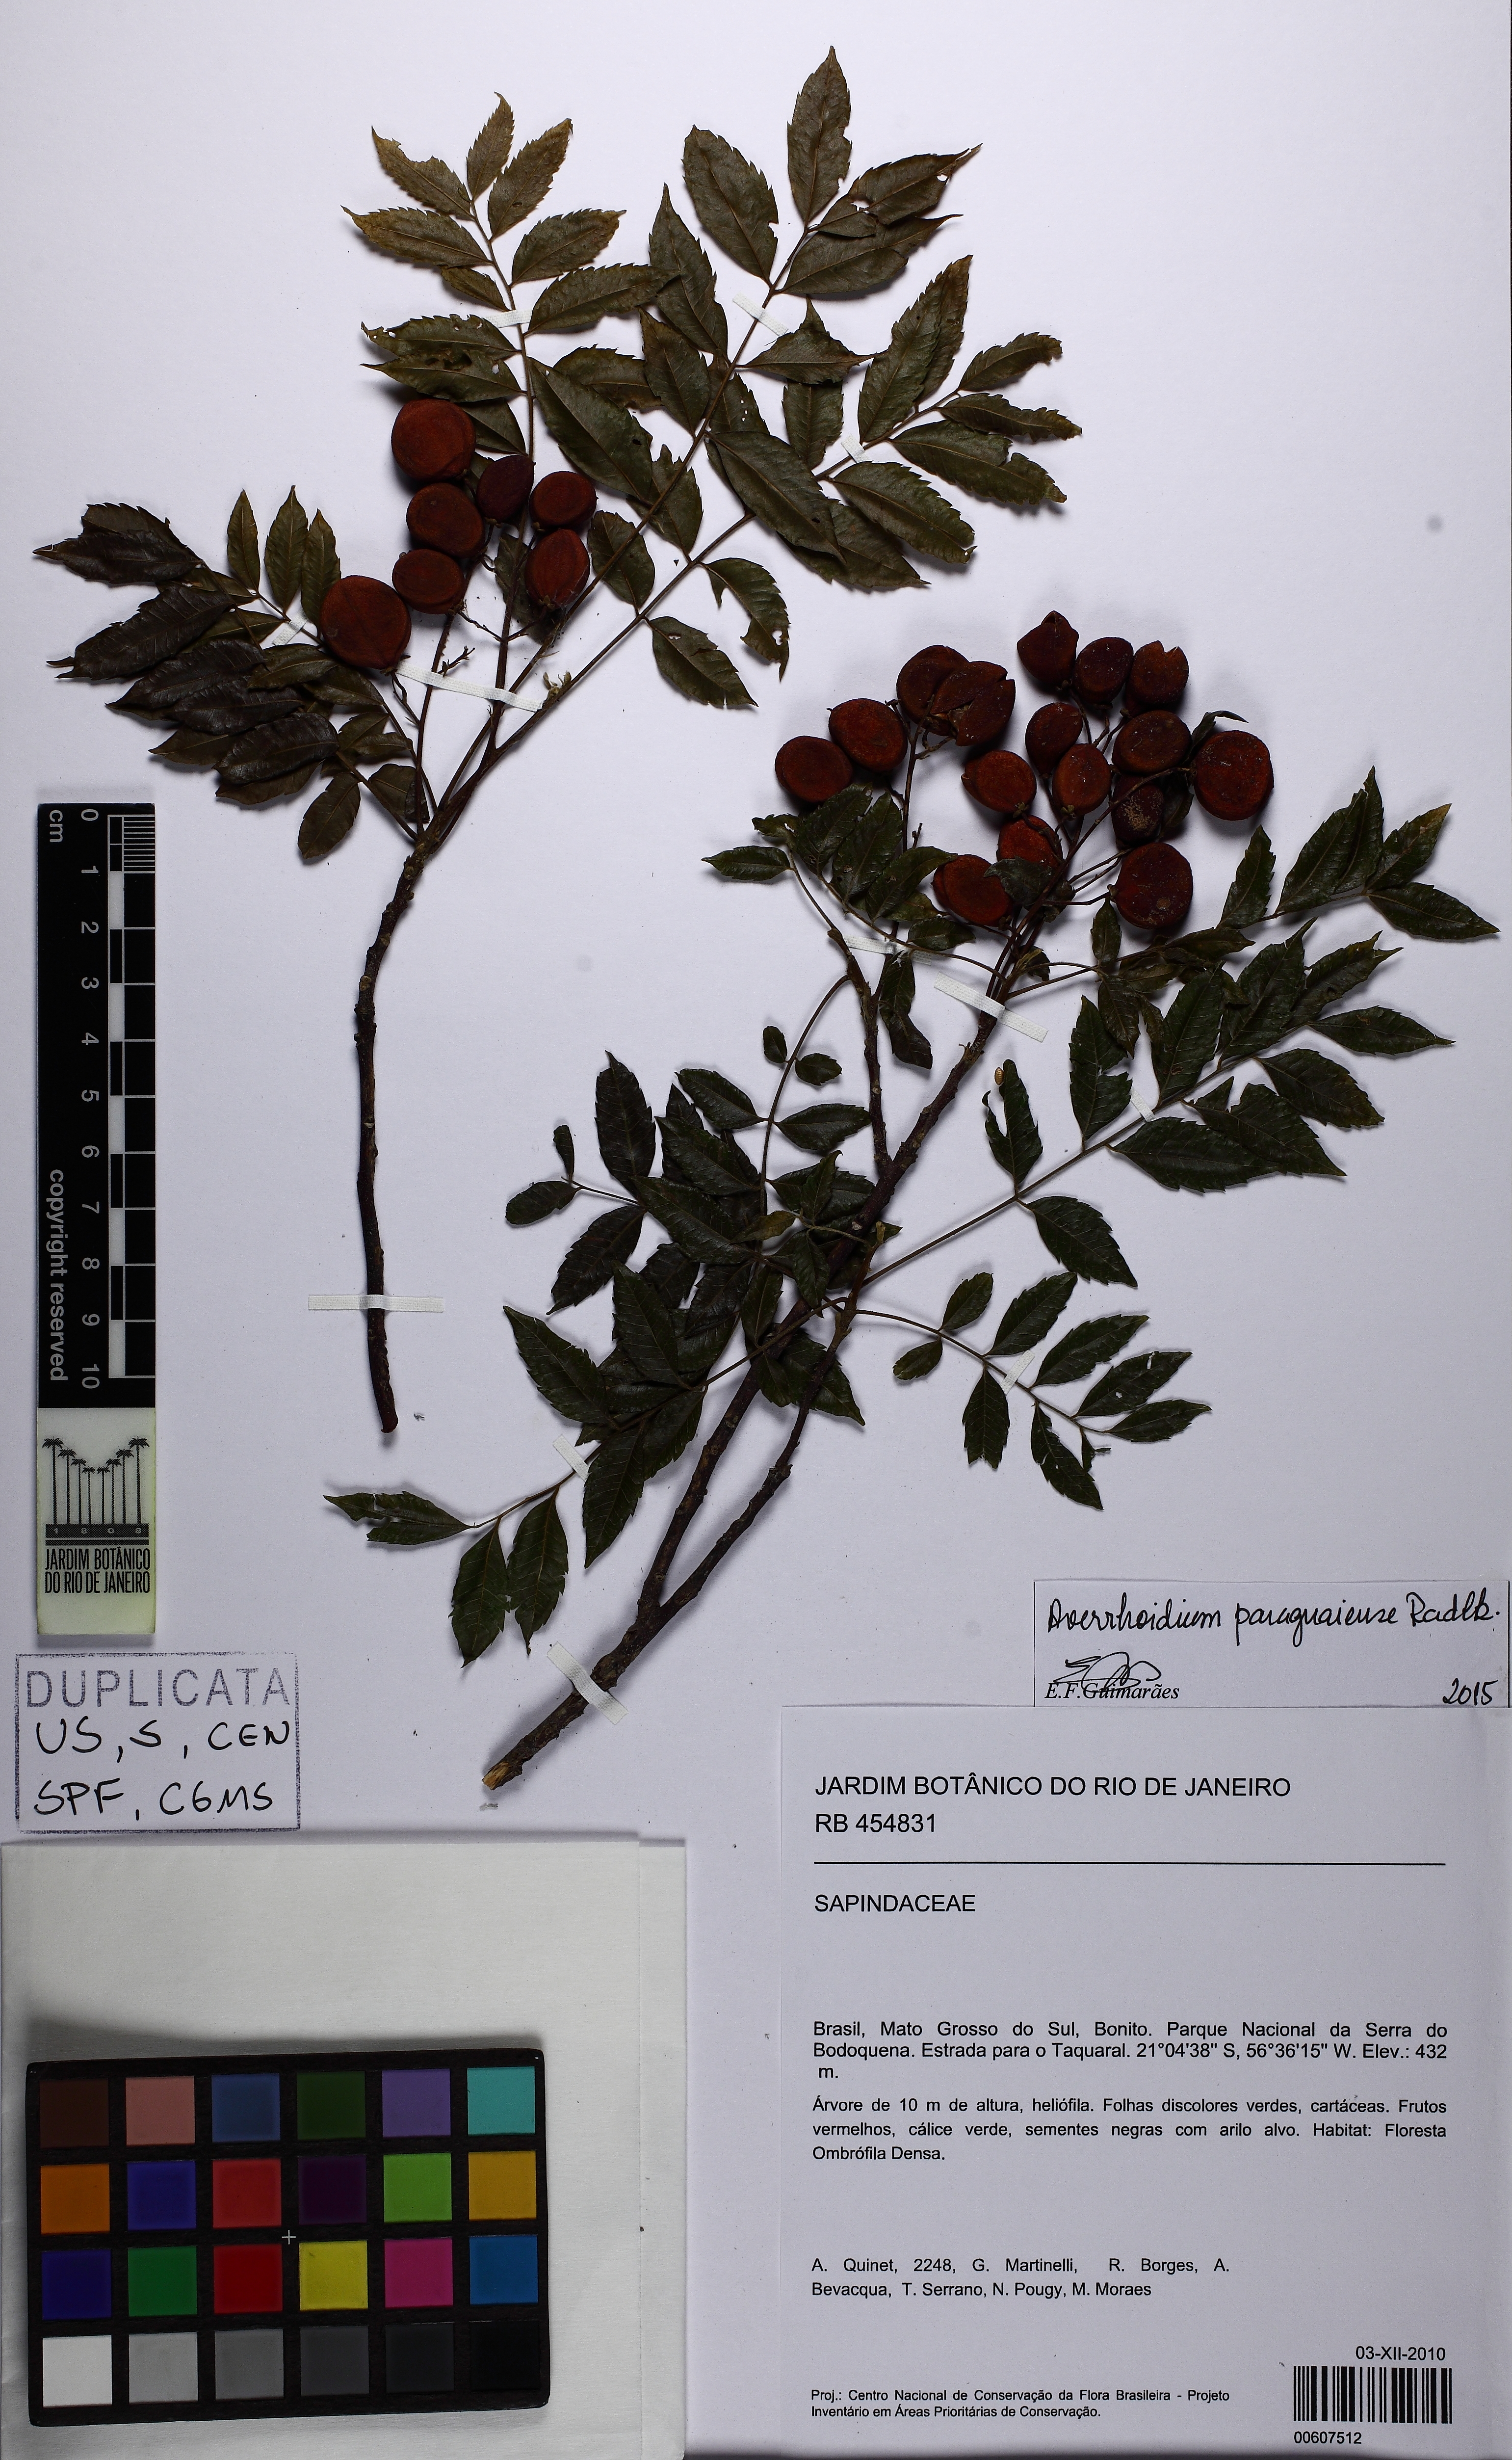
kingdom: Plantae
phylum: Tracheophyta
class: Magnoliopsida
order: Sapindales
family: Sapindaceae
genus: Averrhoidium
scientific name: Averrhoidium paraguaiense
